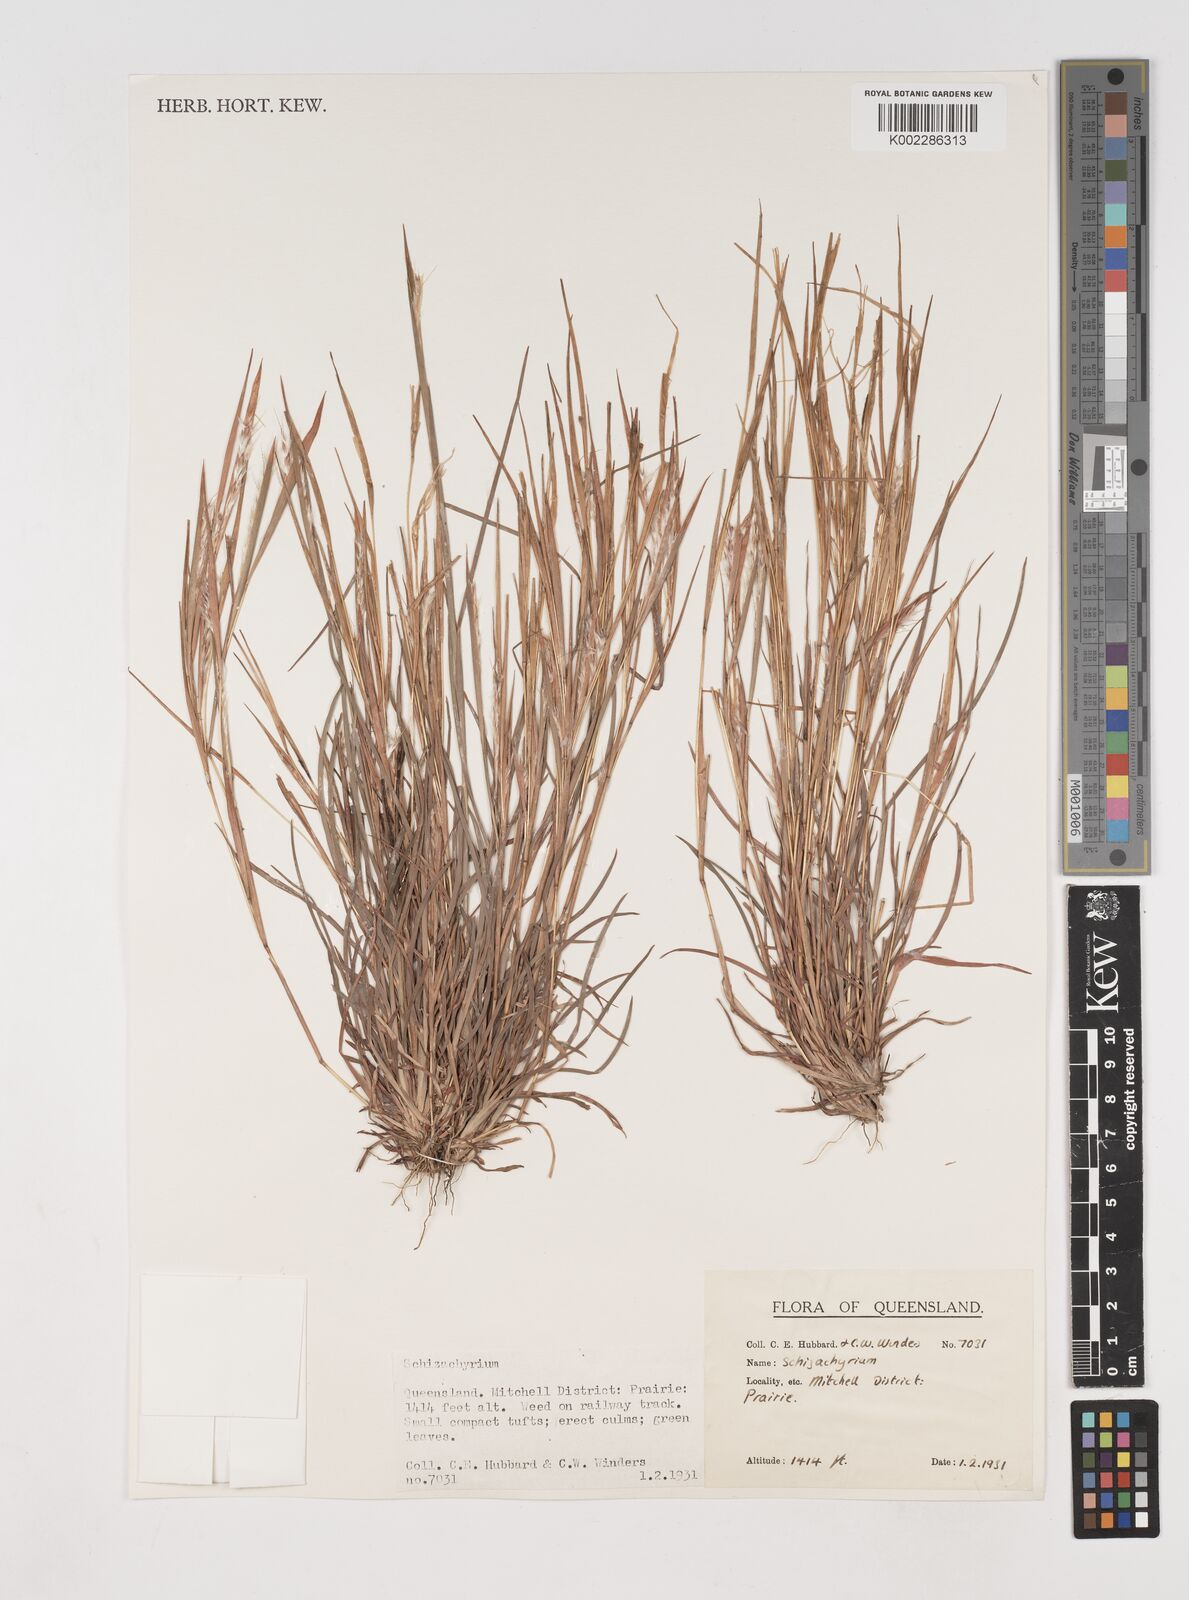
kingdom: Plantae
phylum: Tracheophyta
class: Liliopsida
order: Poales
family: Poaceae
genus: Schizachyrium
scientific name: Schizachyrium
